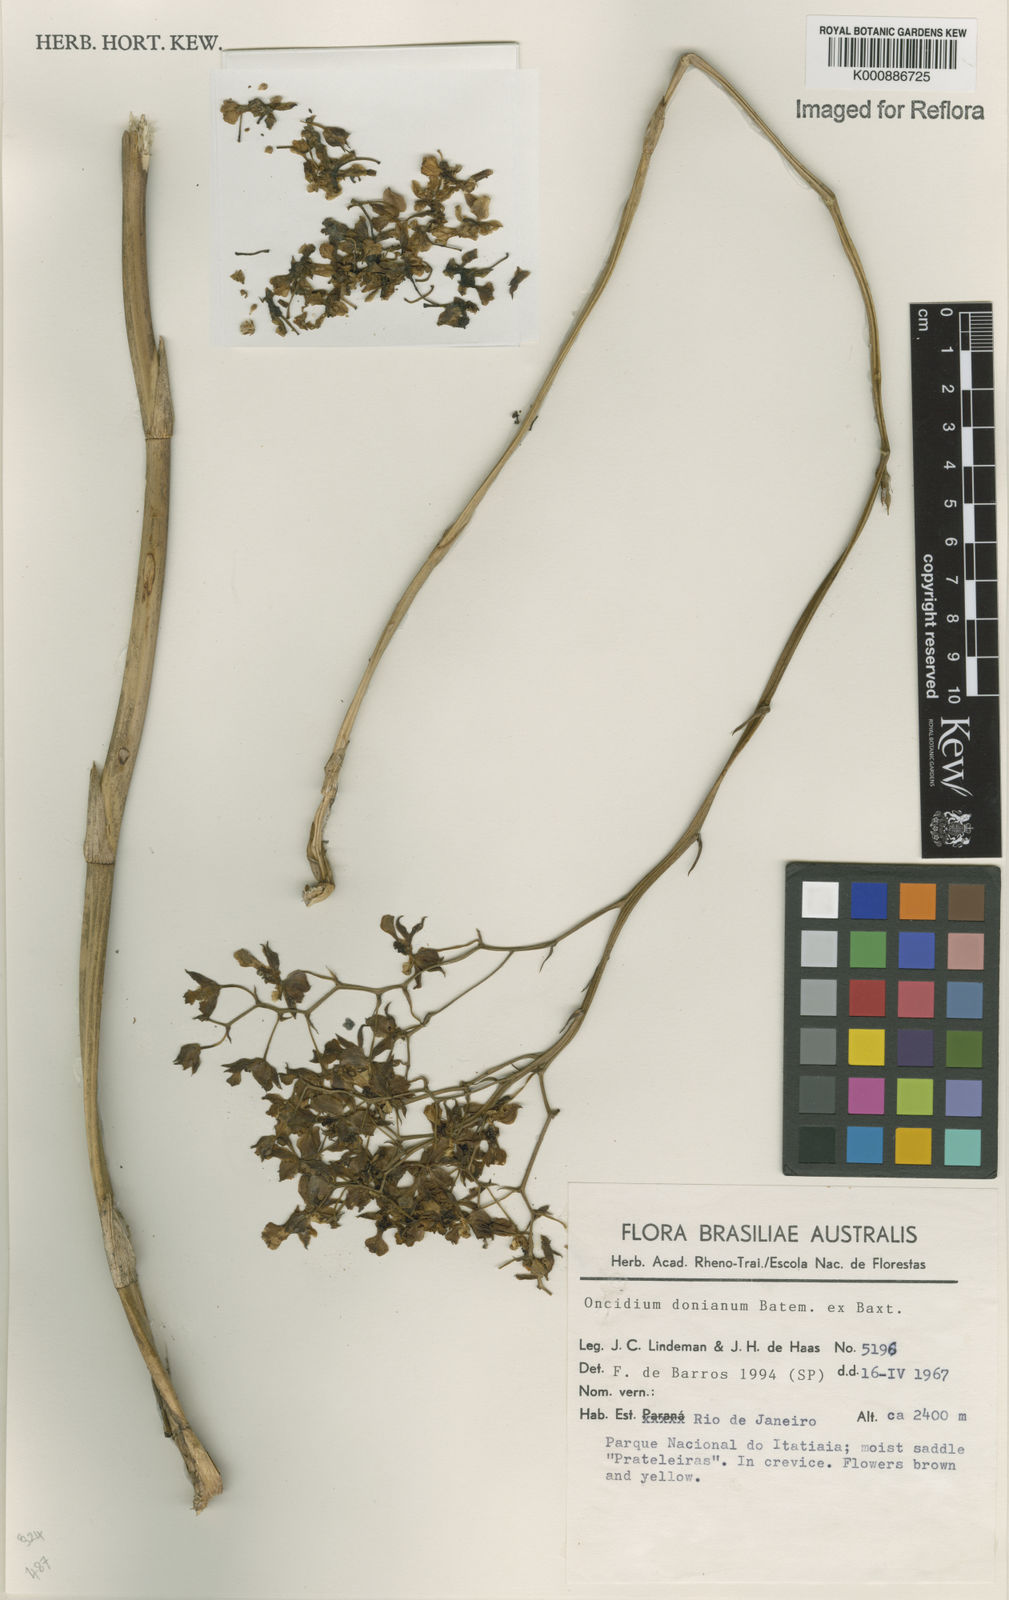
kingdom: Plantae
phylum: Tracheophyta
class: Liliopsida
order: Asparagales
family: Orchidaceae
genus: Gomesa
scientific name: Gomesa doniana
